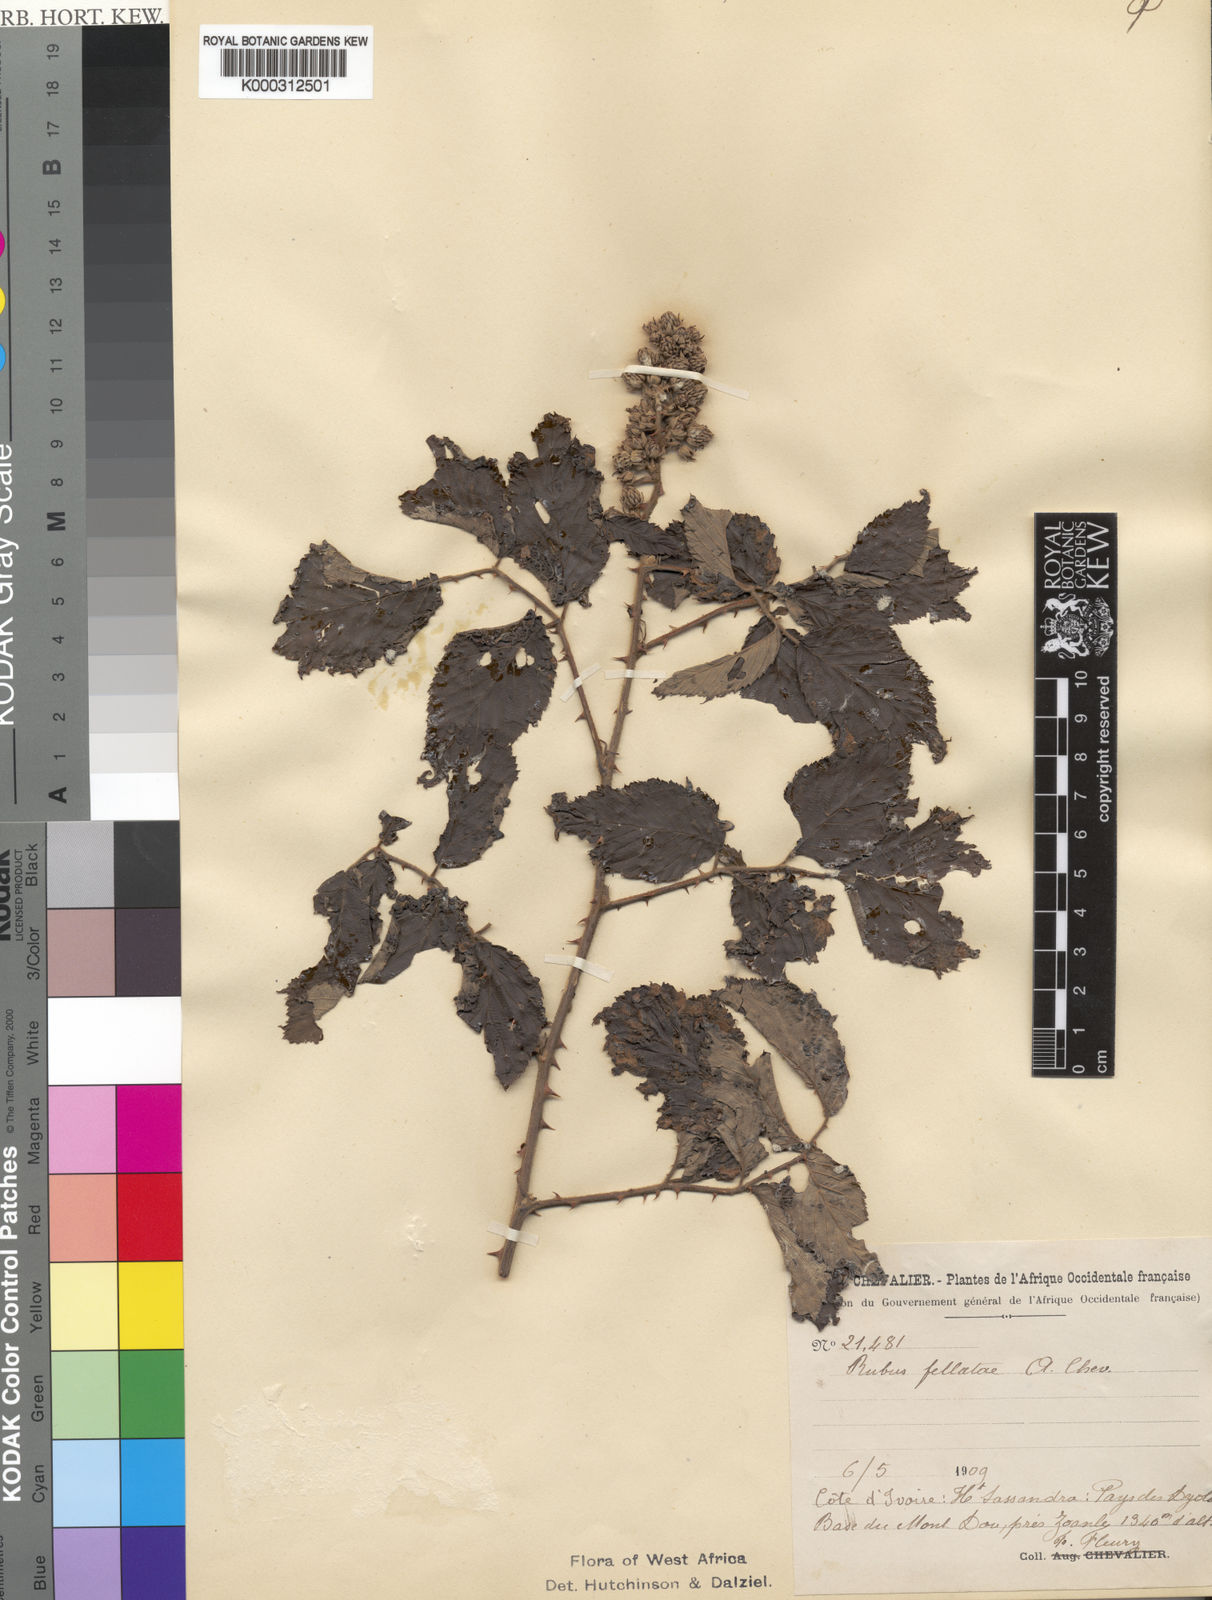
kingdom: Plantae
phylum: Tracheophyta
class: Magnoliopsida
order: Rosales
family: Rosaceae
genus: Rubus
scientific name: Rubus fellatae
